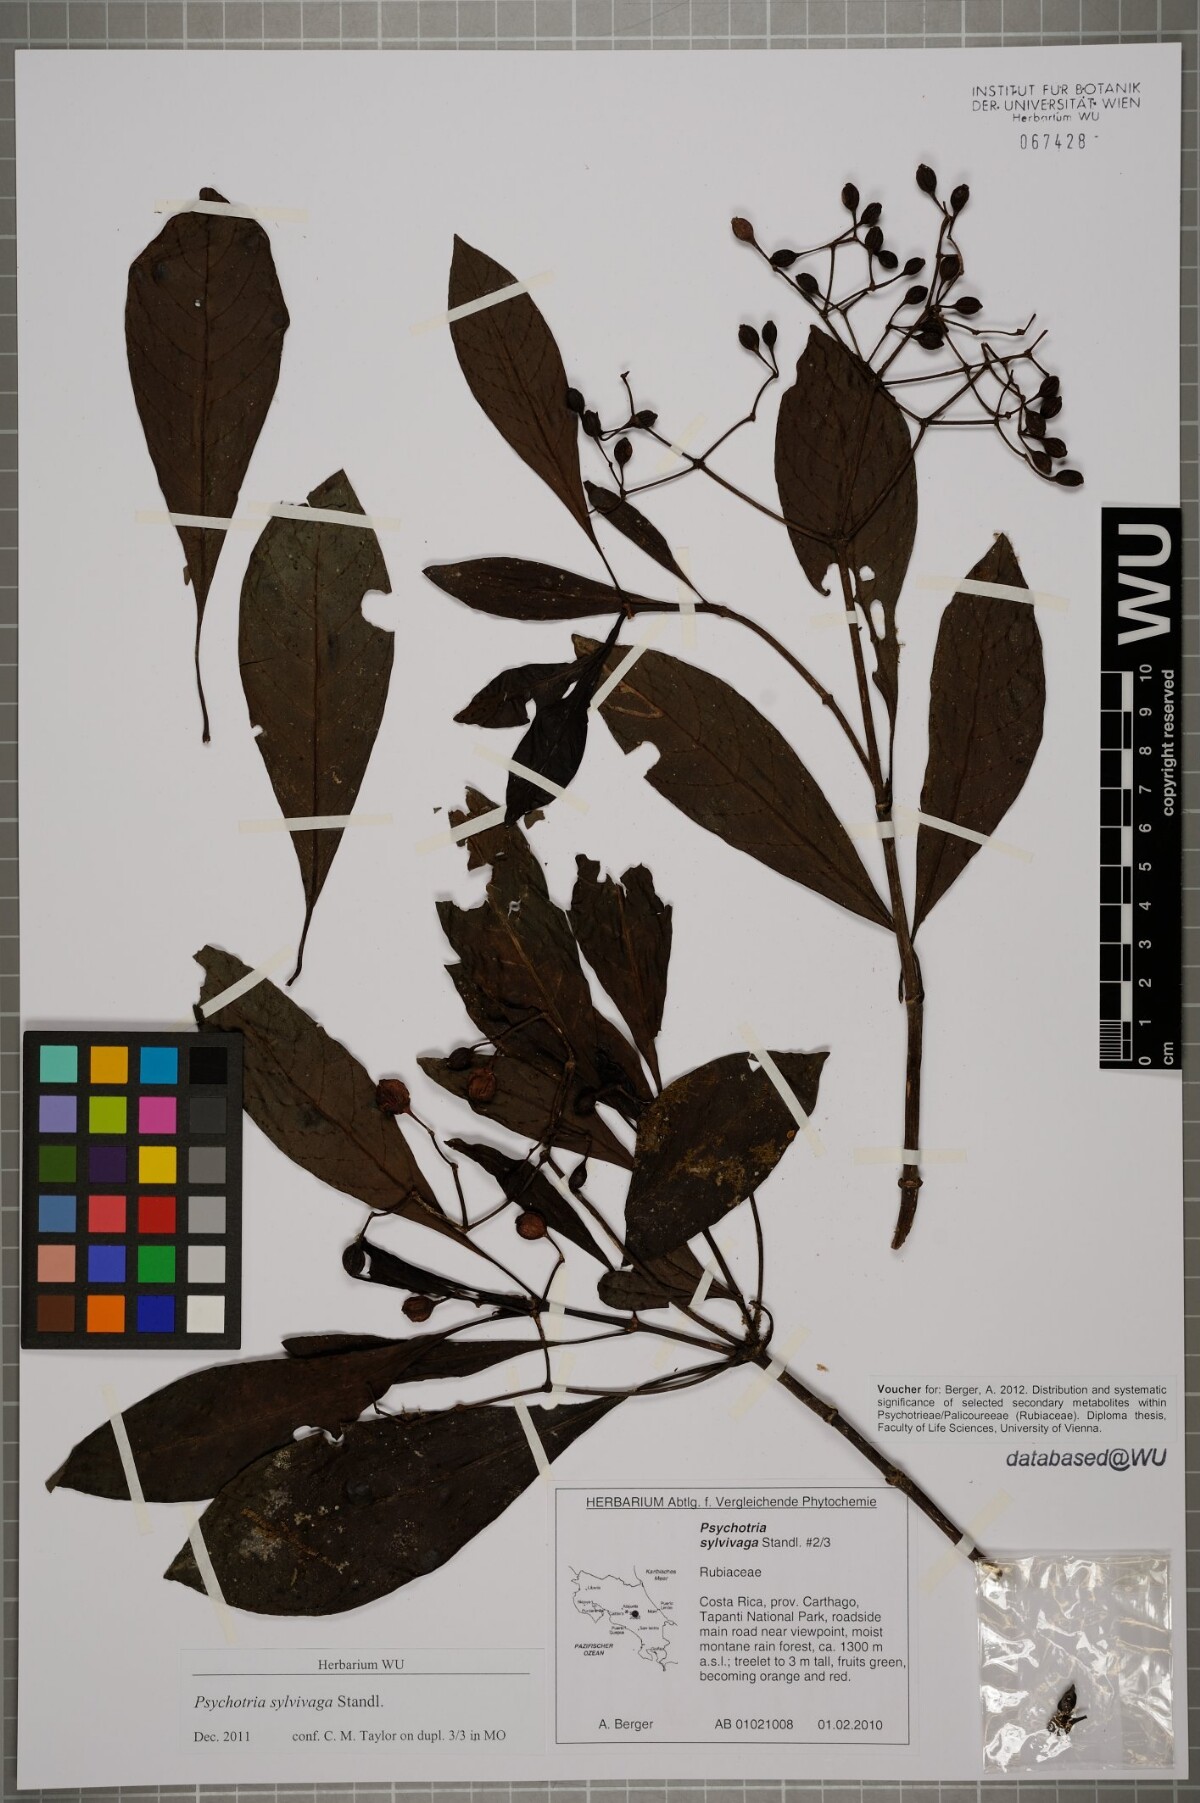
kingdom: Plantae
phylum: Tracheophyta
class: Magnoliopsida
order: Gentianales
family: Rubiaceae
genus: Psychotria
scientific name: Psychotria sylvivaga
